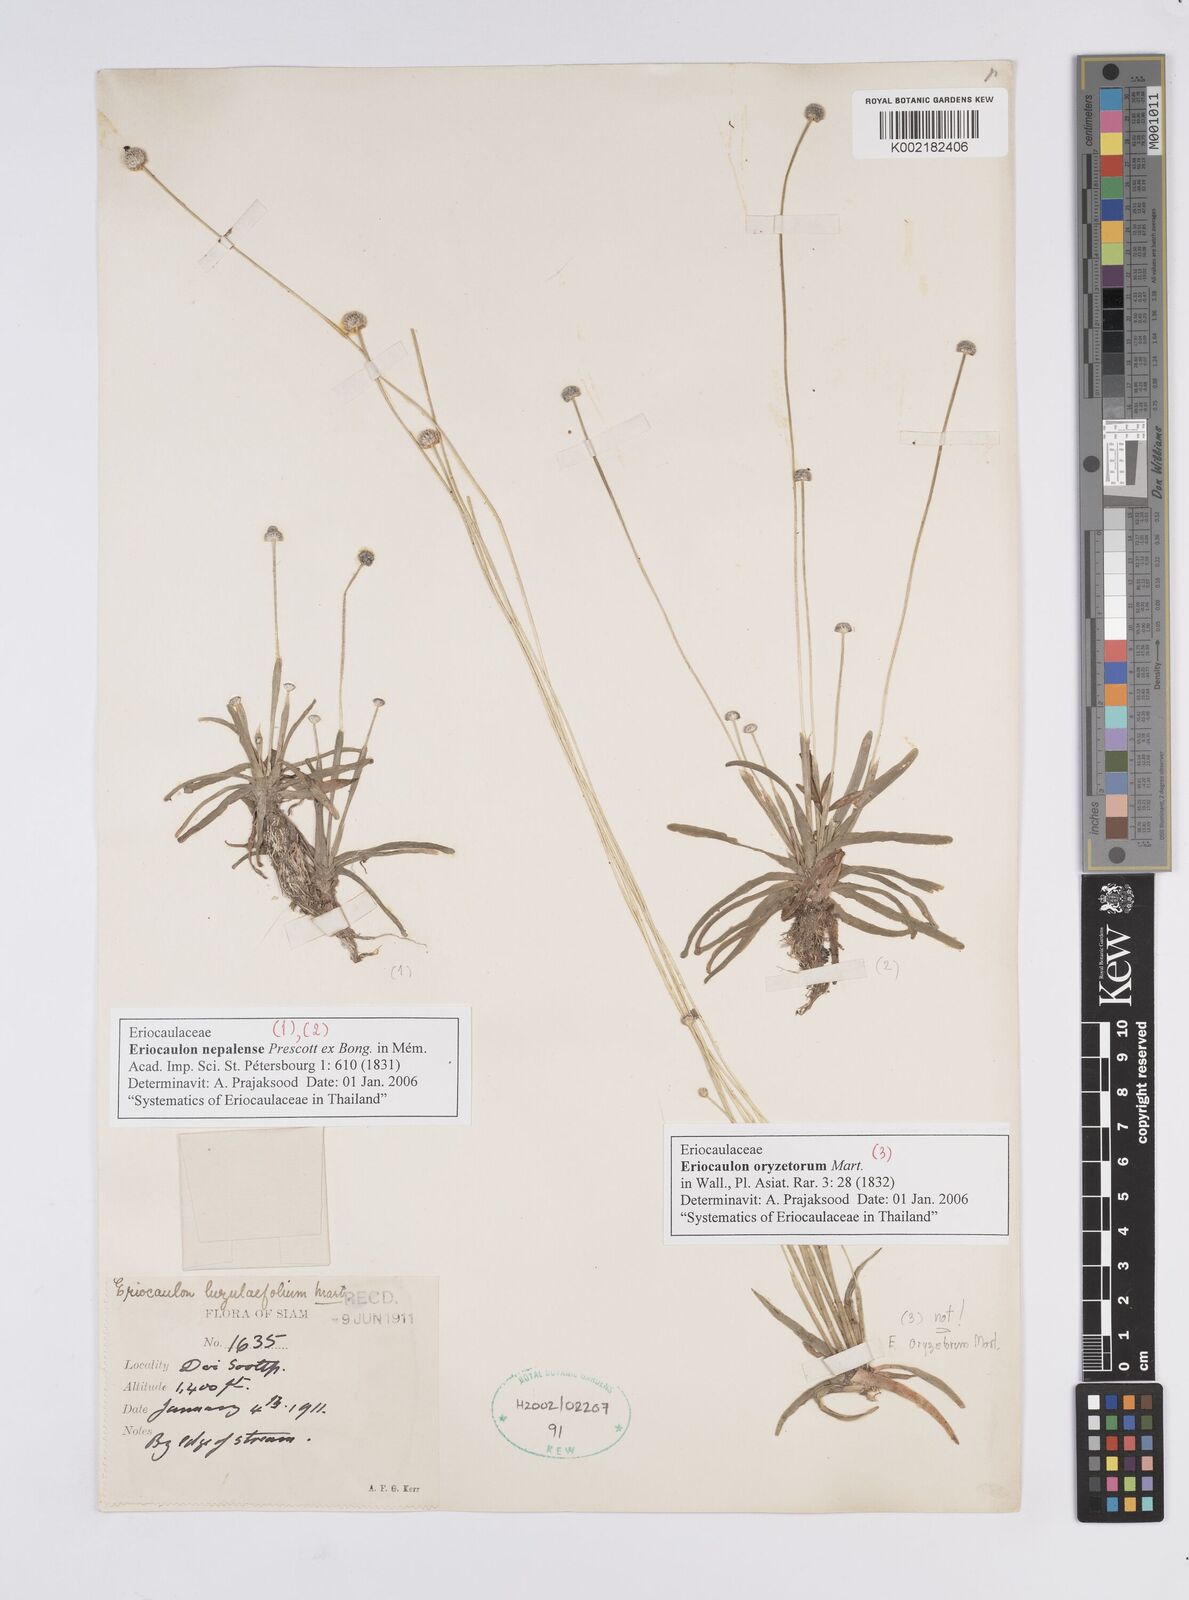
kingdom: Plantae
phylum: Tracheophyta
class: Liliopsida
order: Poales
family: Eriocaulaceae
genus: Eriocaulon
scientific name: Eriocaulon nepalense
